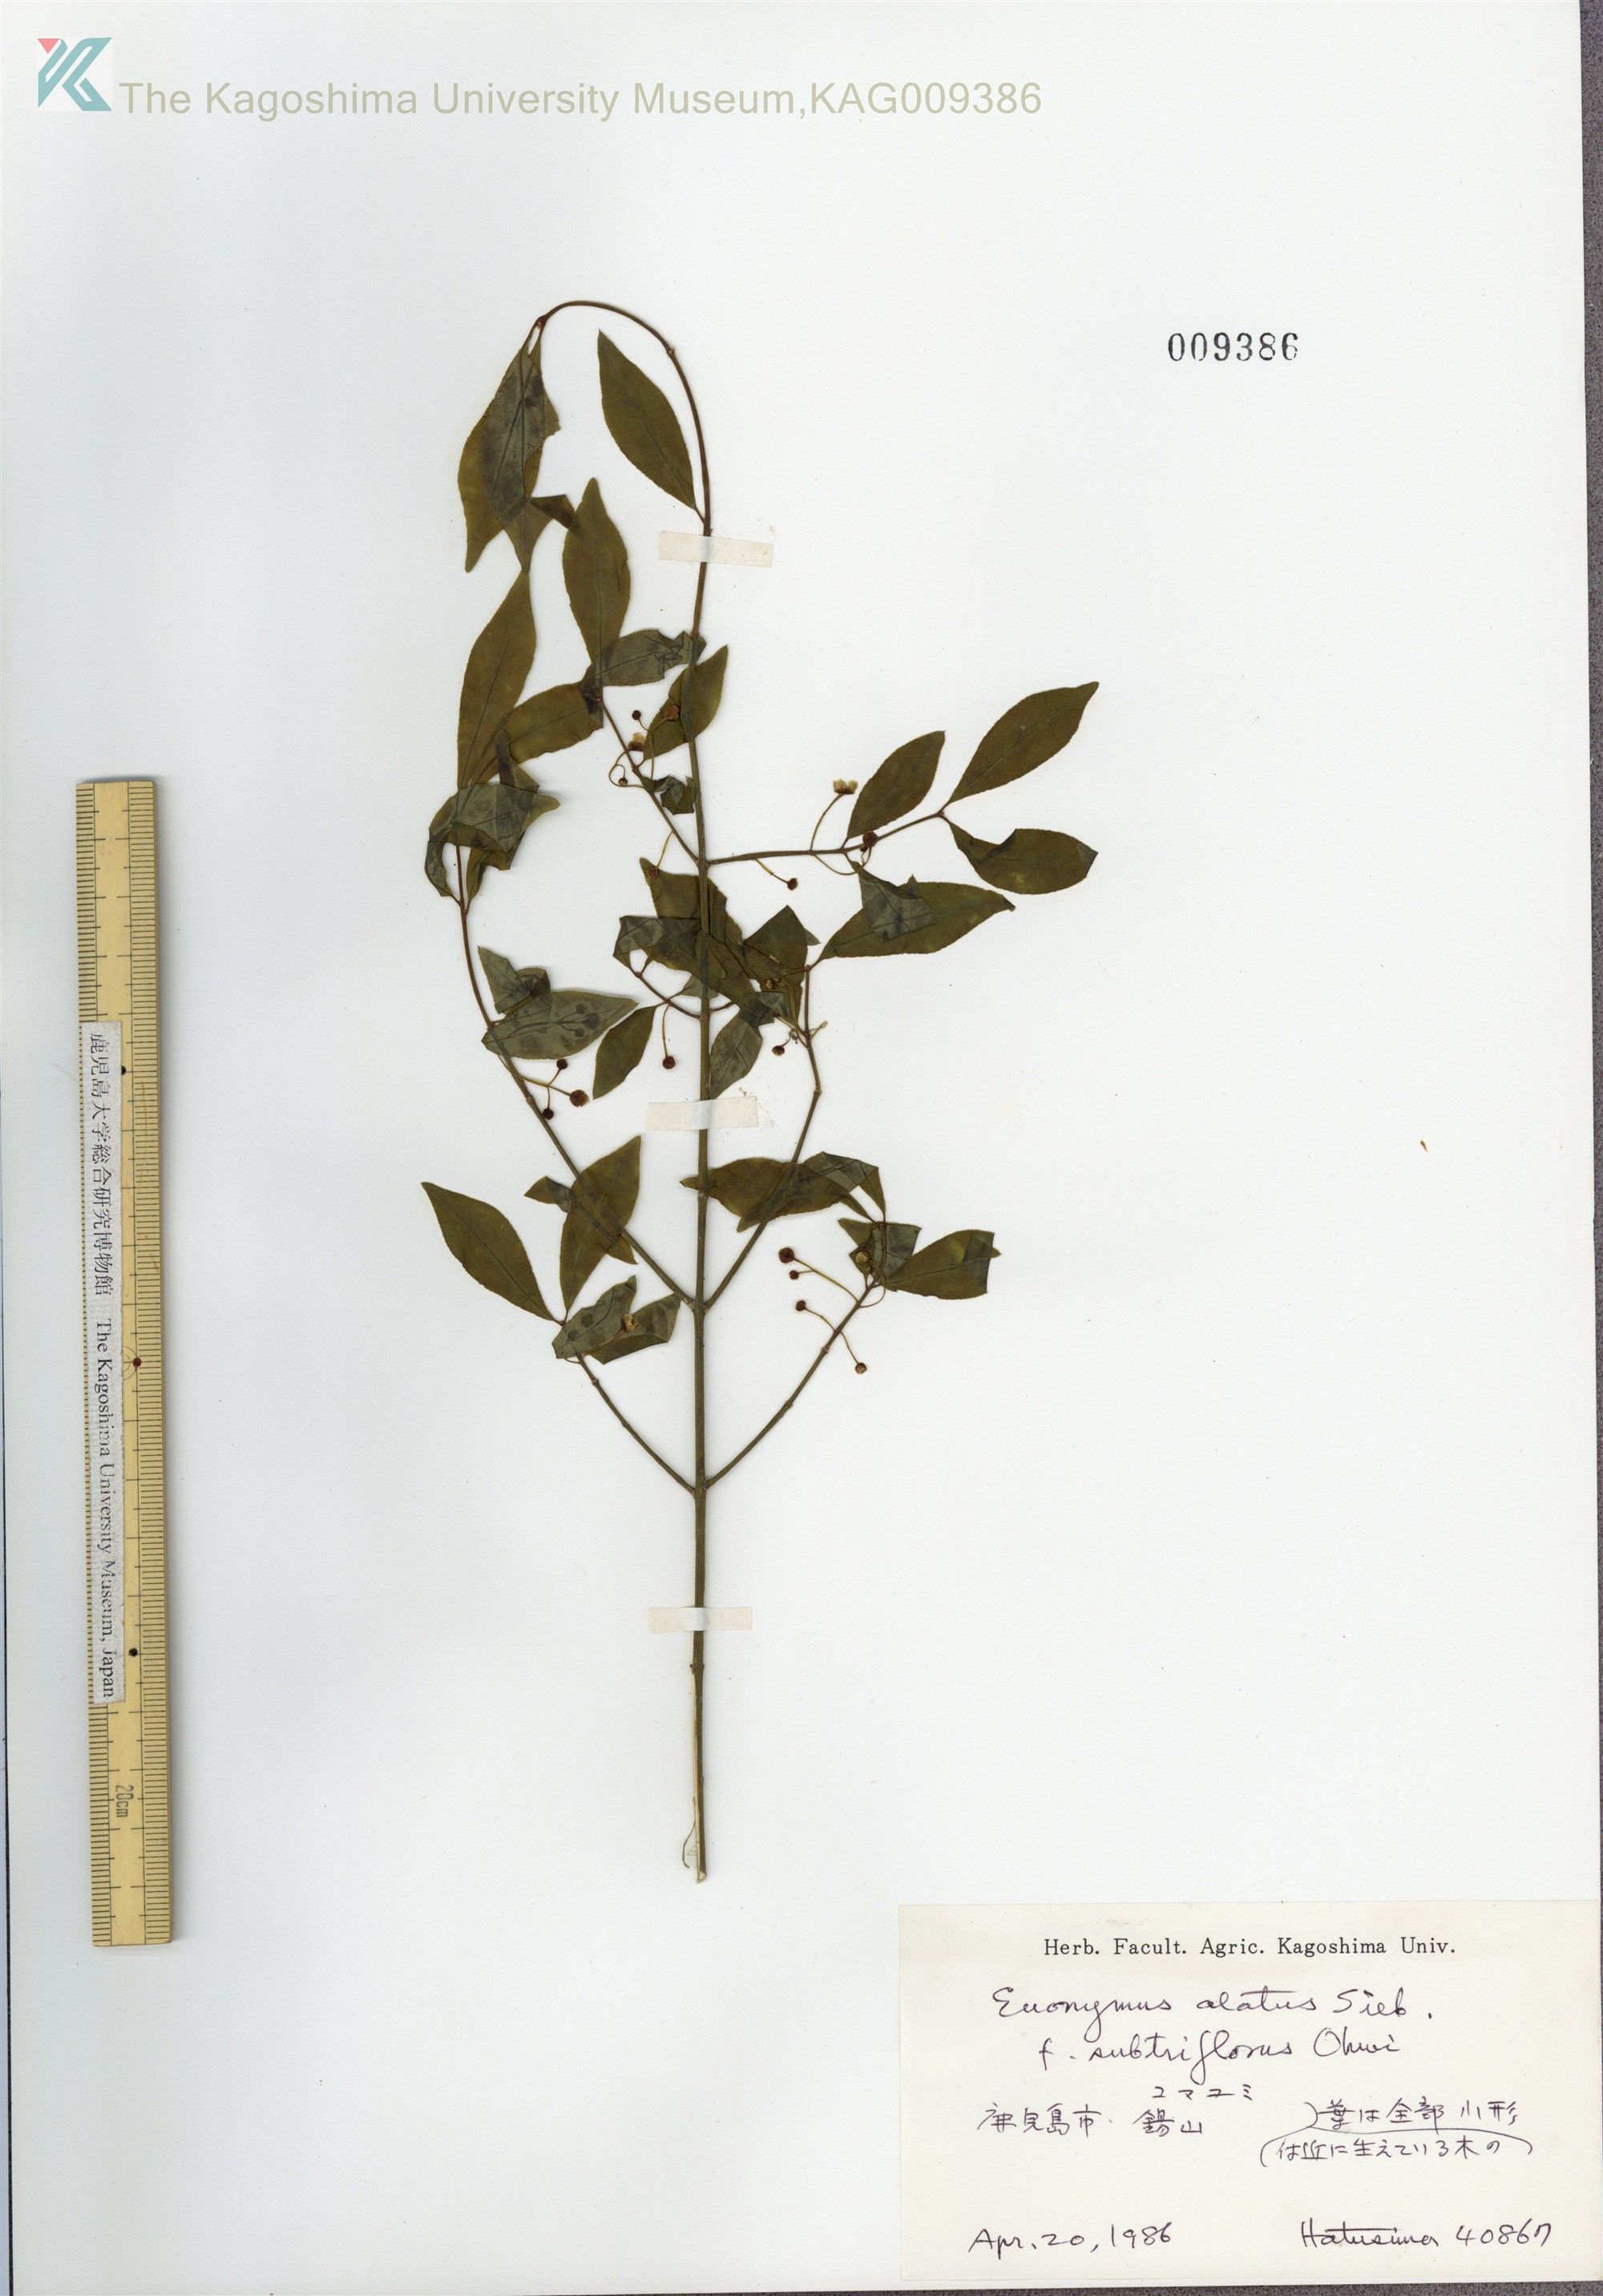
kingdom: Plantae
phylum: Tracheophyta
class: Magnoliopsida
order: Celastrales
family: Celastraceae
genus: Euonymus
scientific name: Euonymus alatus
